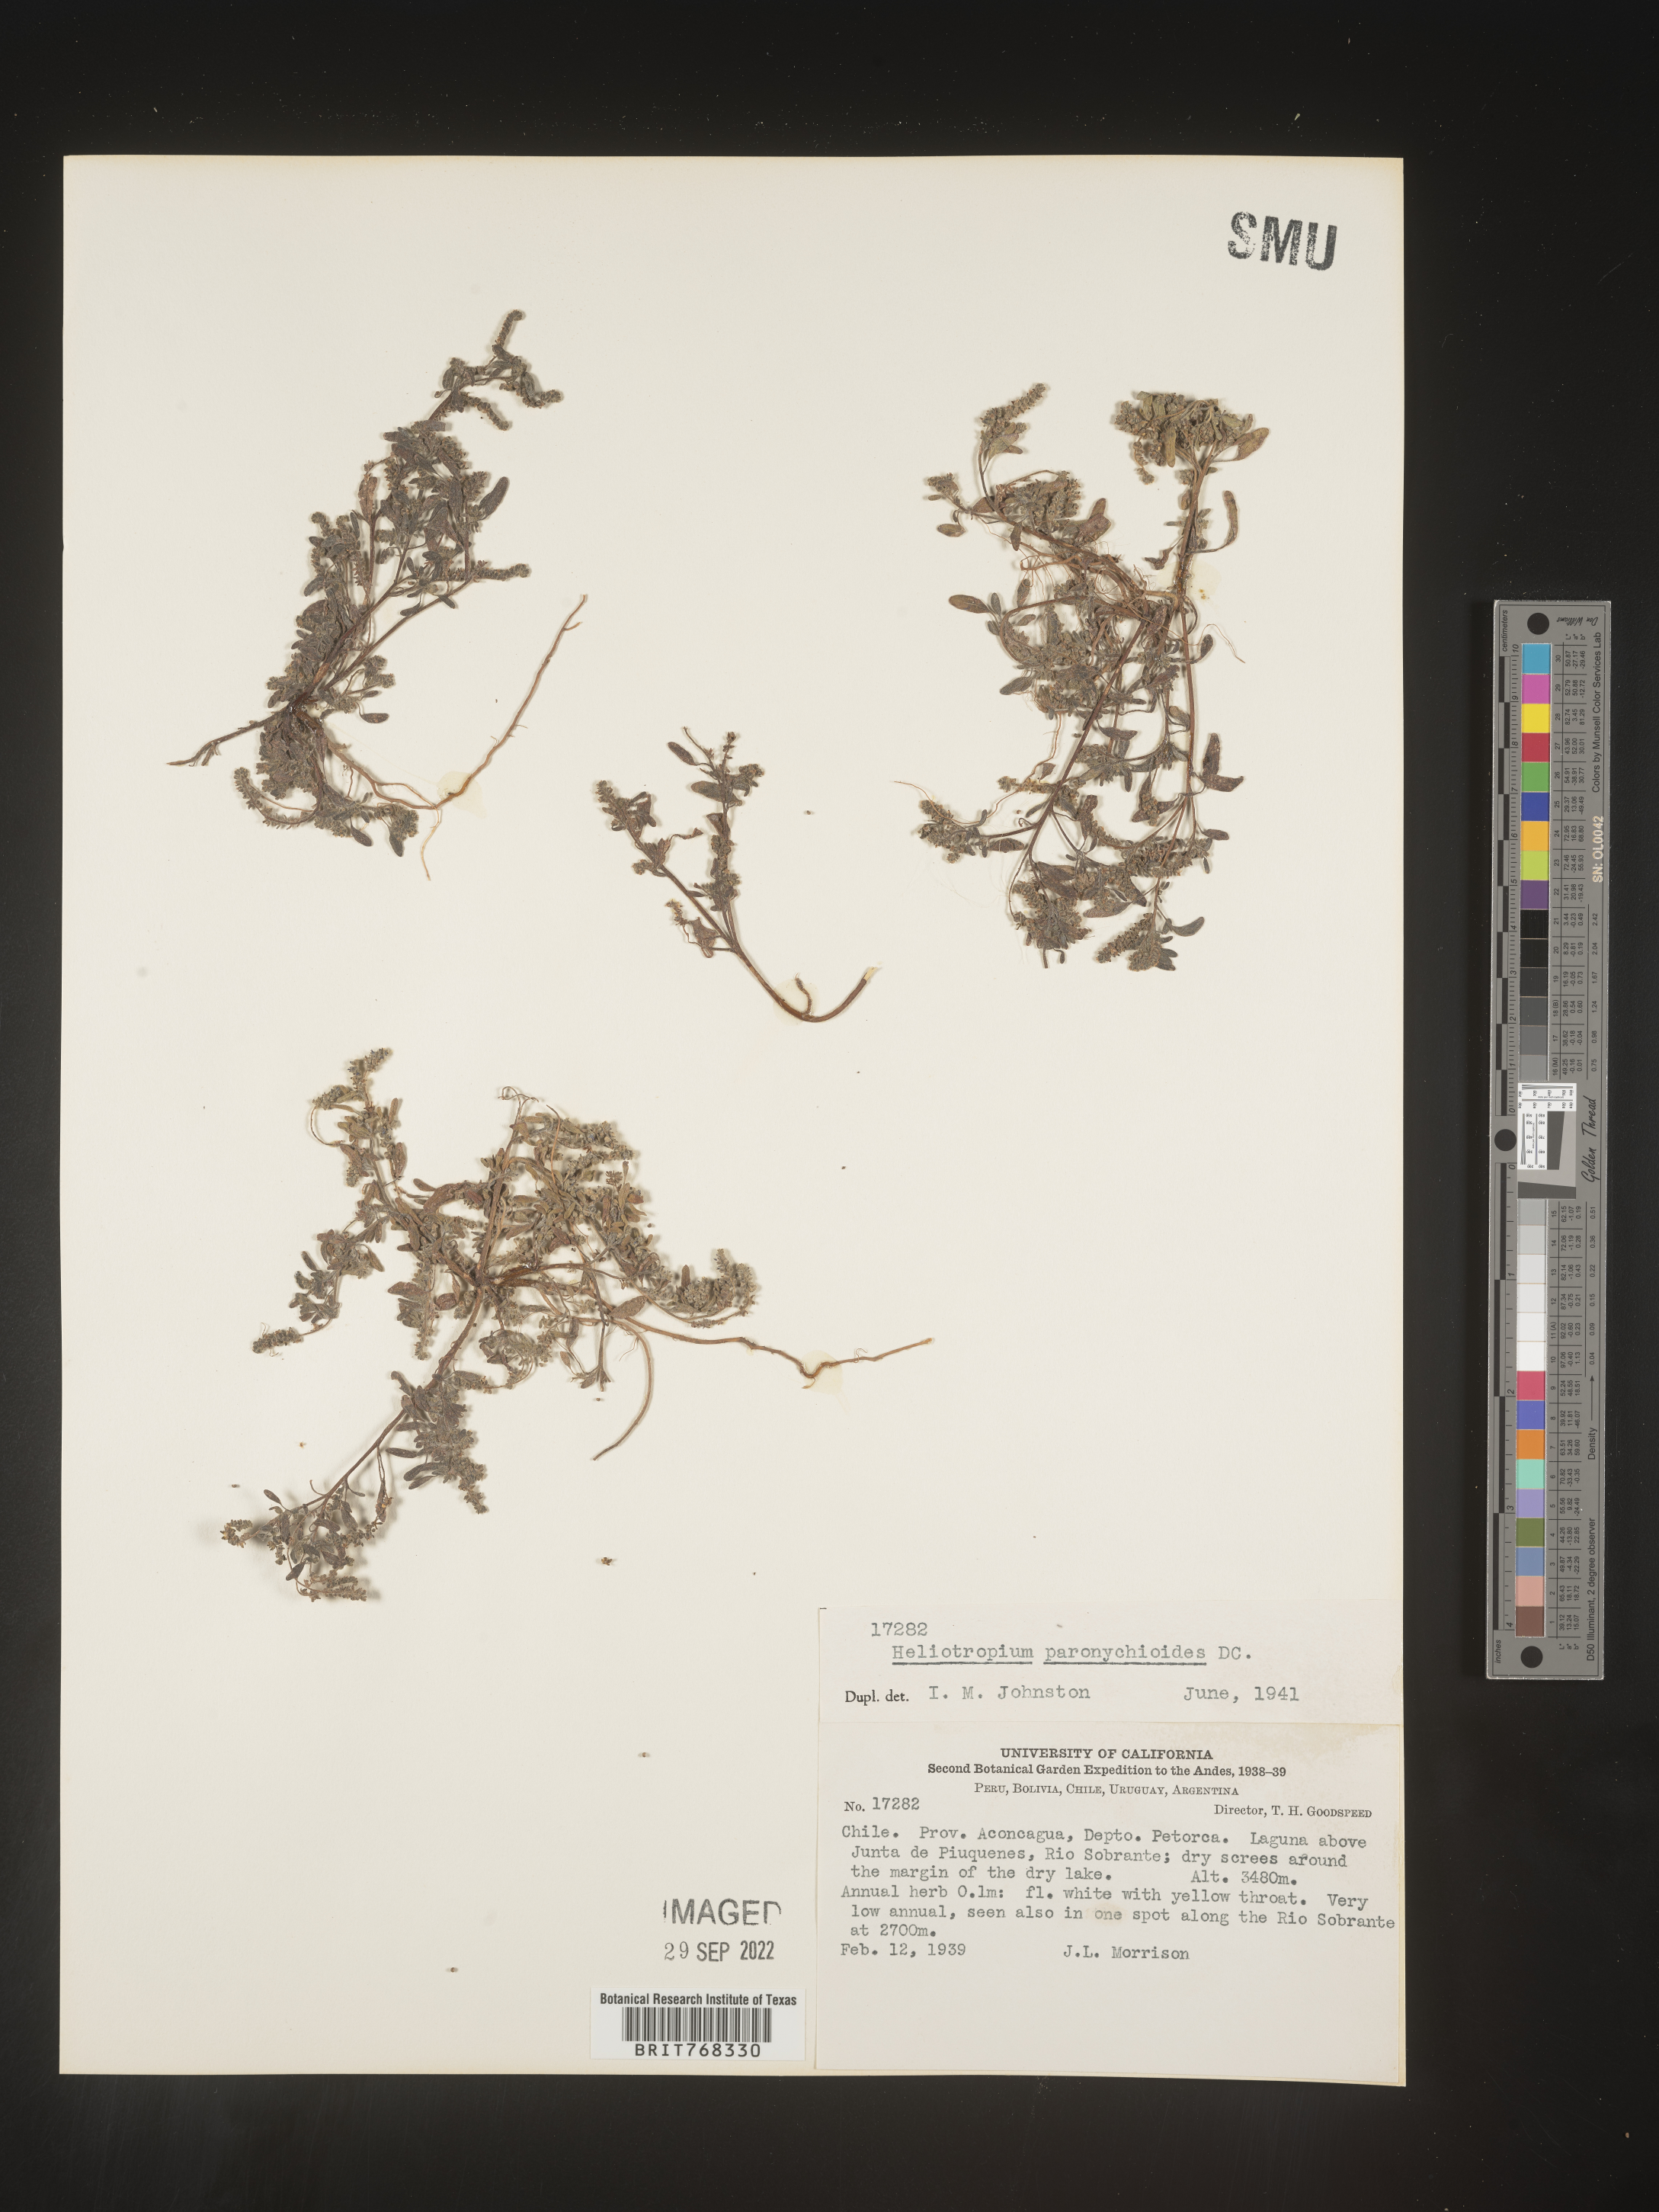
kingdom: Plantae
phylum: Tracheophyta
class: Magnoliopsida
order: Boraginales
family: Heliotropiaceae
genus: Heliotropium
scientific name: Heliotropium
